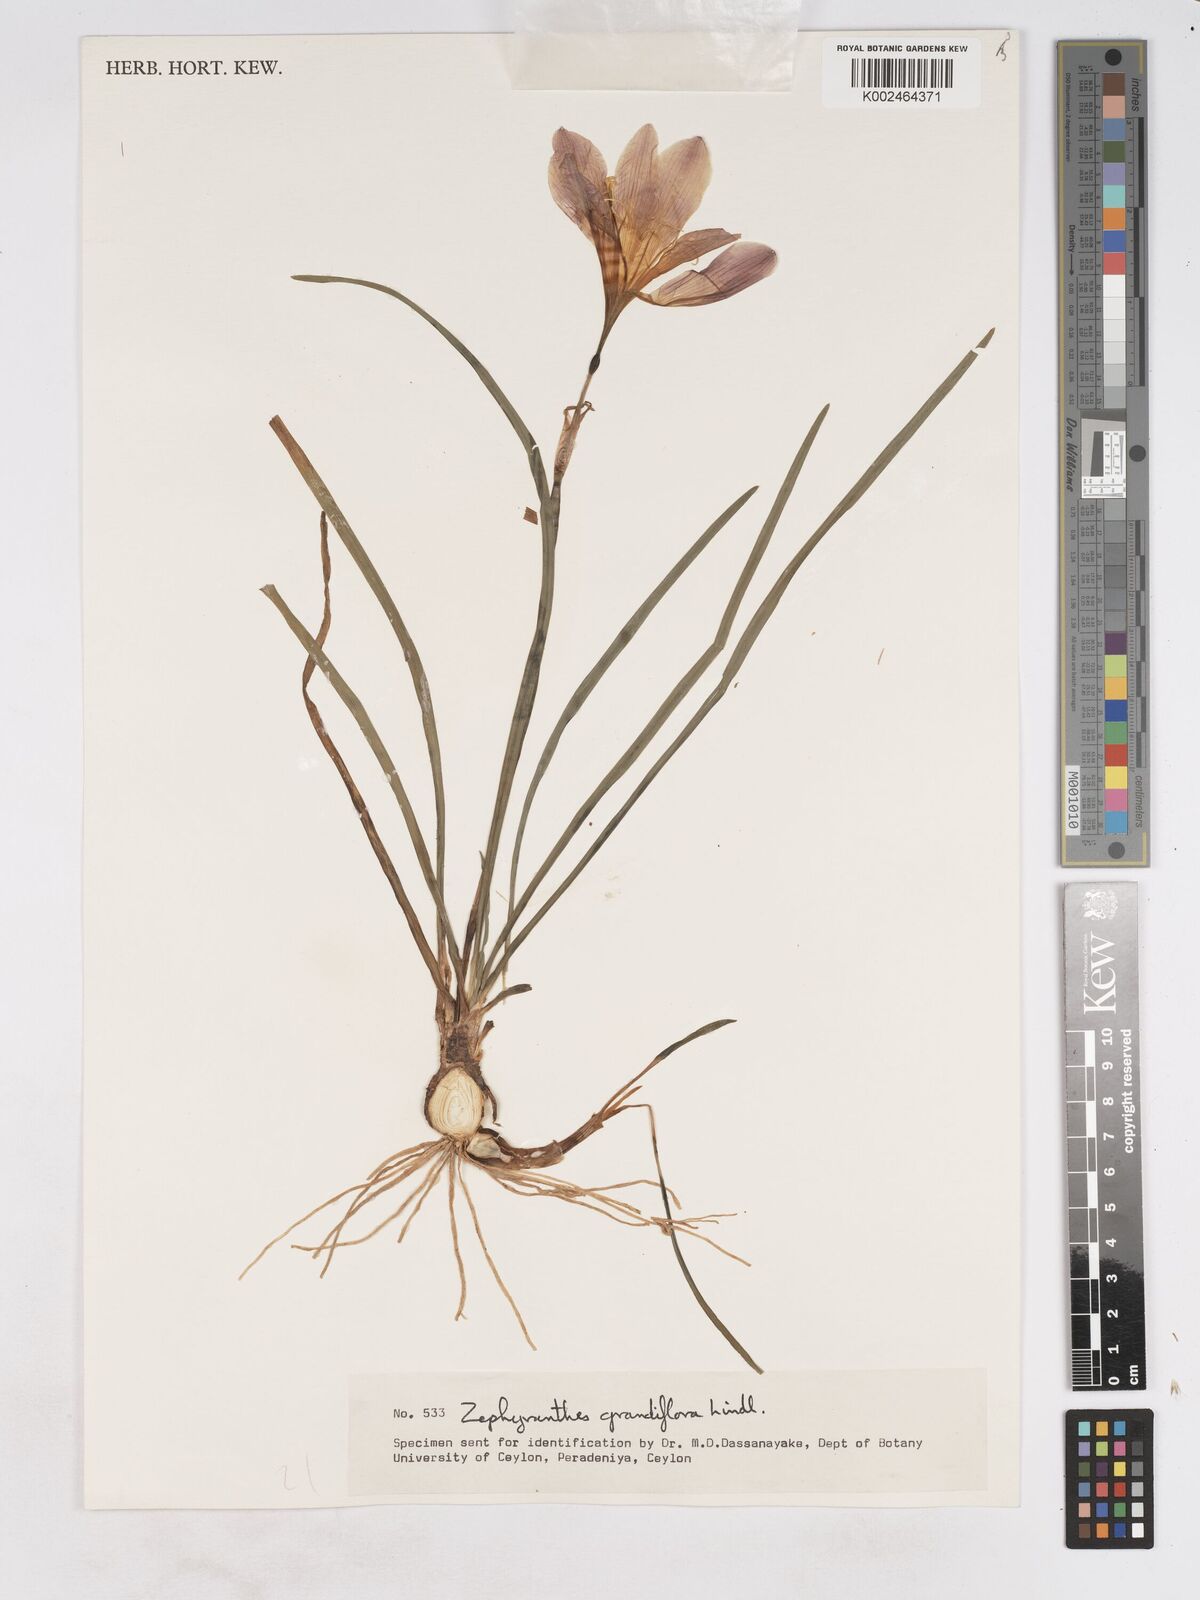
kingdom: Plantae
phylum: Tracheophyta
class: Liliopsida
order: Asparagales
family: Amaryllidaceae
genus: Zephyranthes
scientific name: Zephyranthes minuta
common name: Pink rain lily
